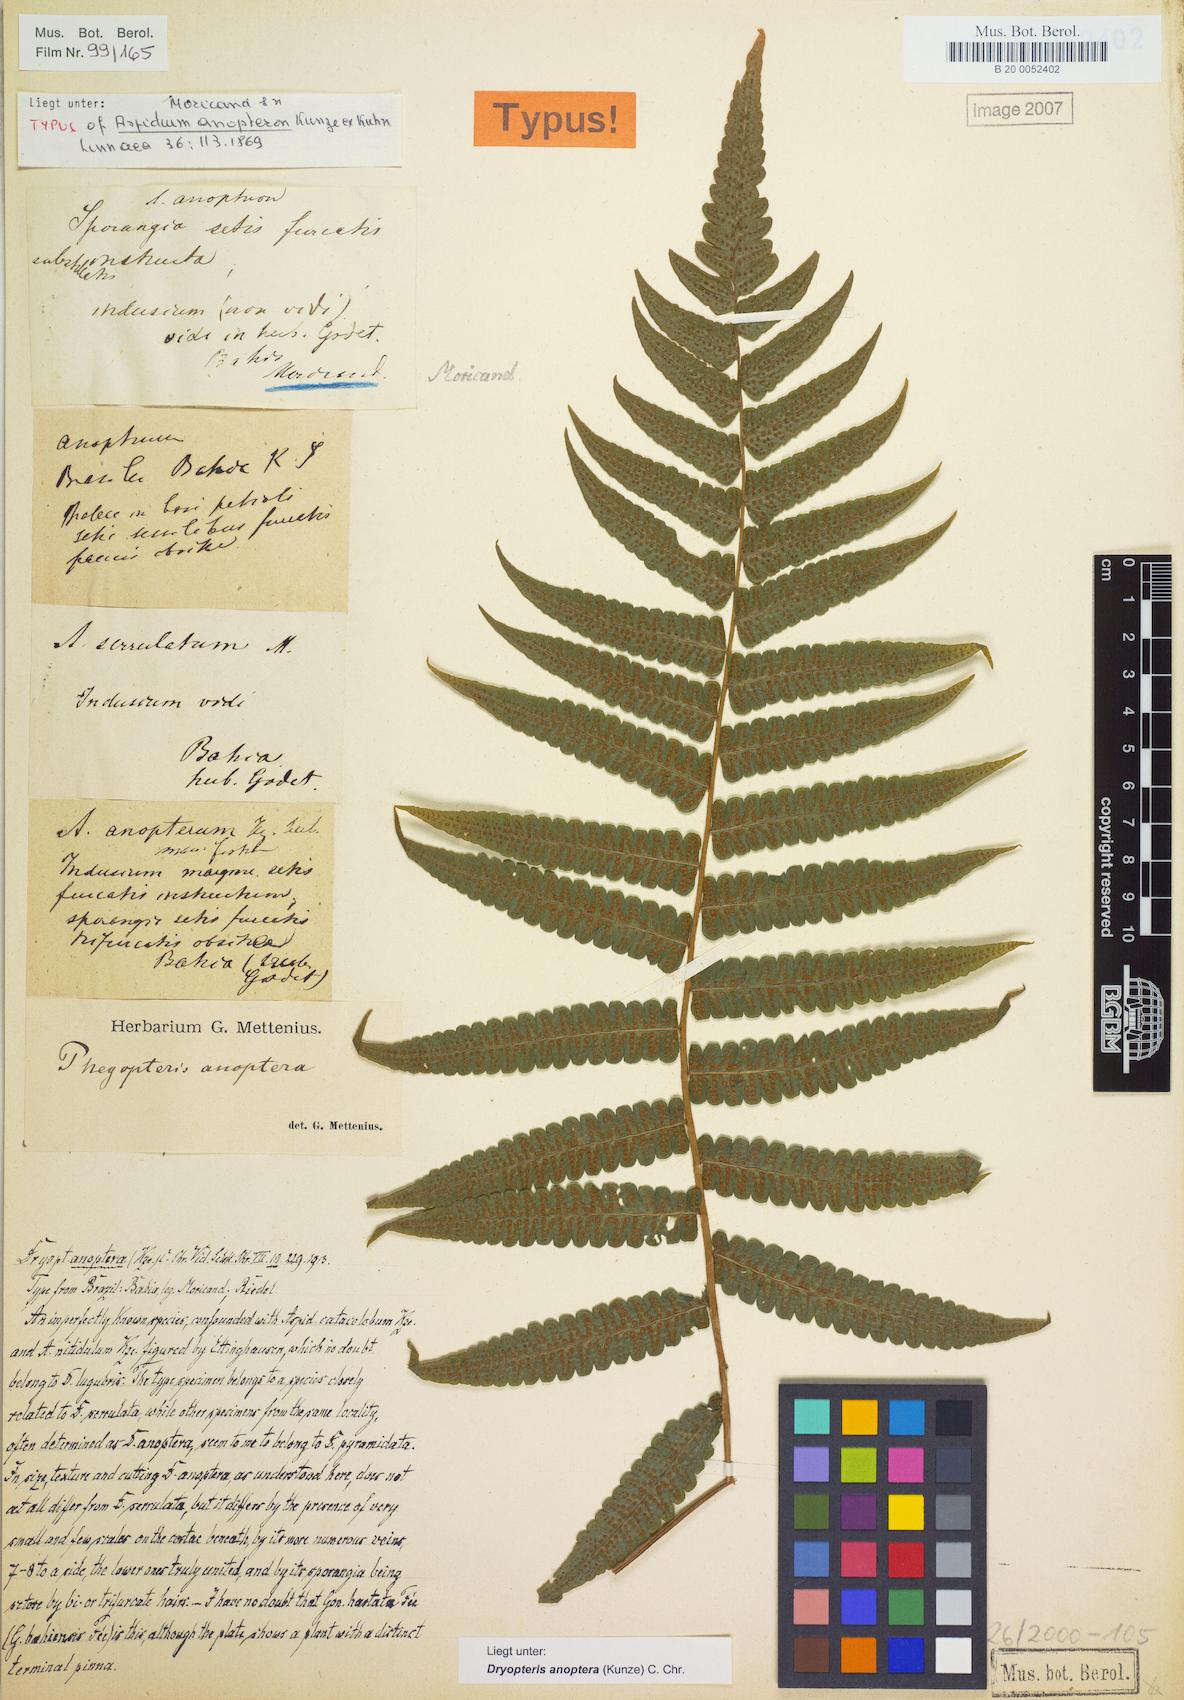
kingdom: Plantae
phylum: Tracheophyta
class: Polypodiopsida
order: Polypodiales
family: Thelypteridaceae
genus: Goniopteris
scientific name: Goniopteris anopteros
